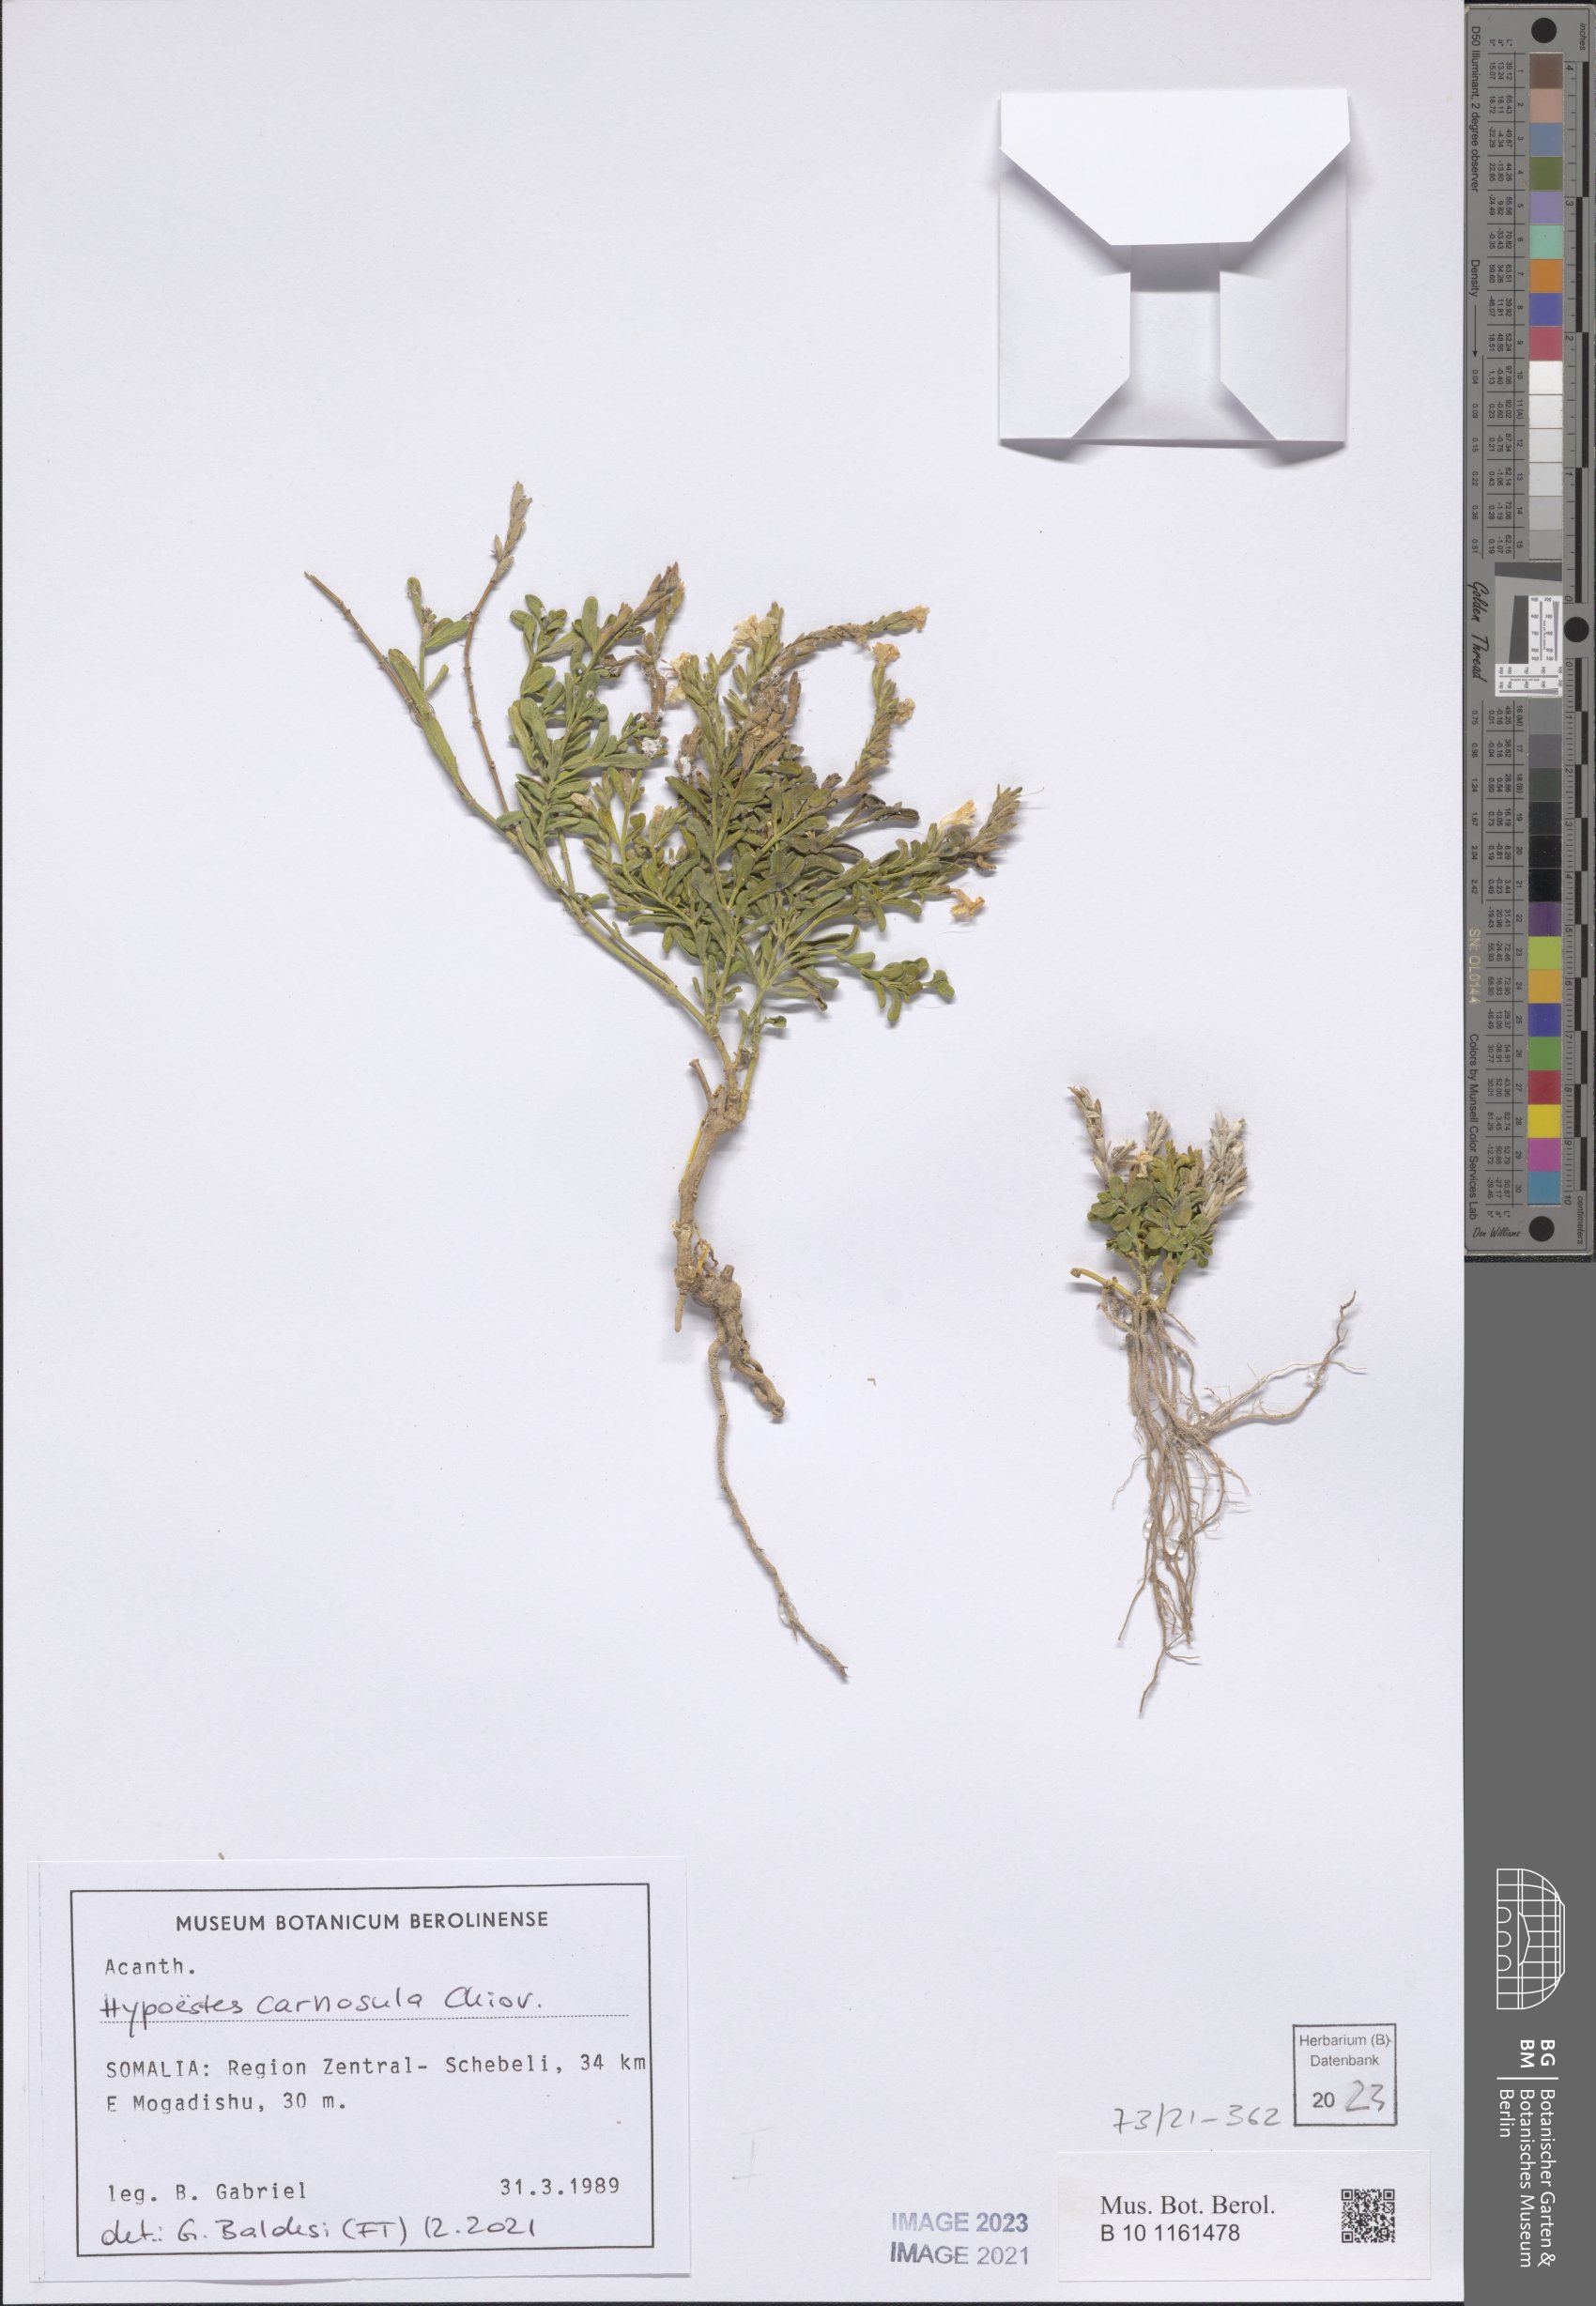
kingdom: Plantae
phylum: Tracheophyta
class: Magnoliopsida
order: Lamiales
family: Acanthaceae
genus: Hypoestes
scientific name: Hypoestes carnosula
